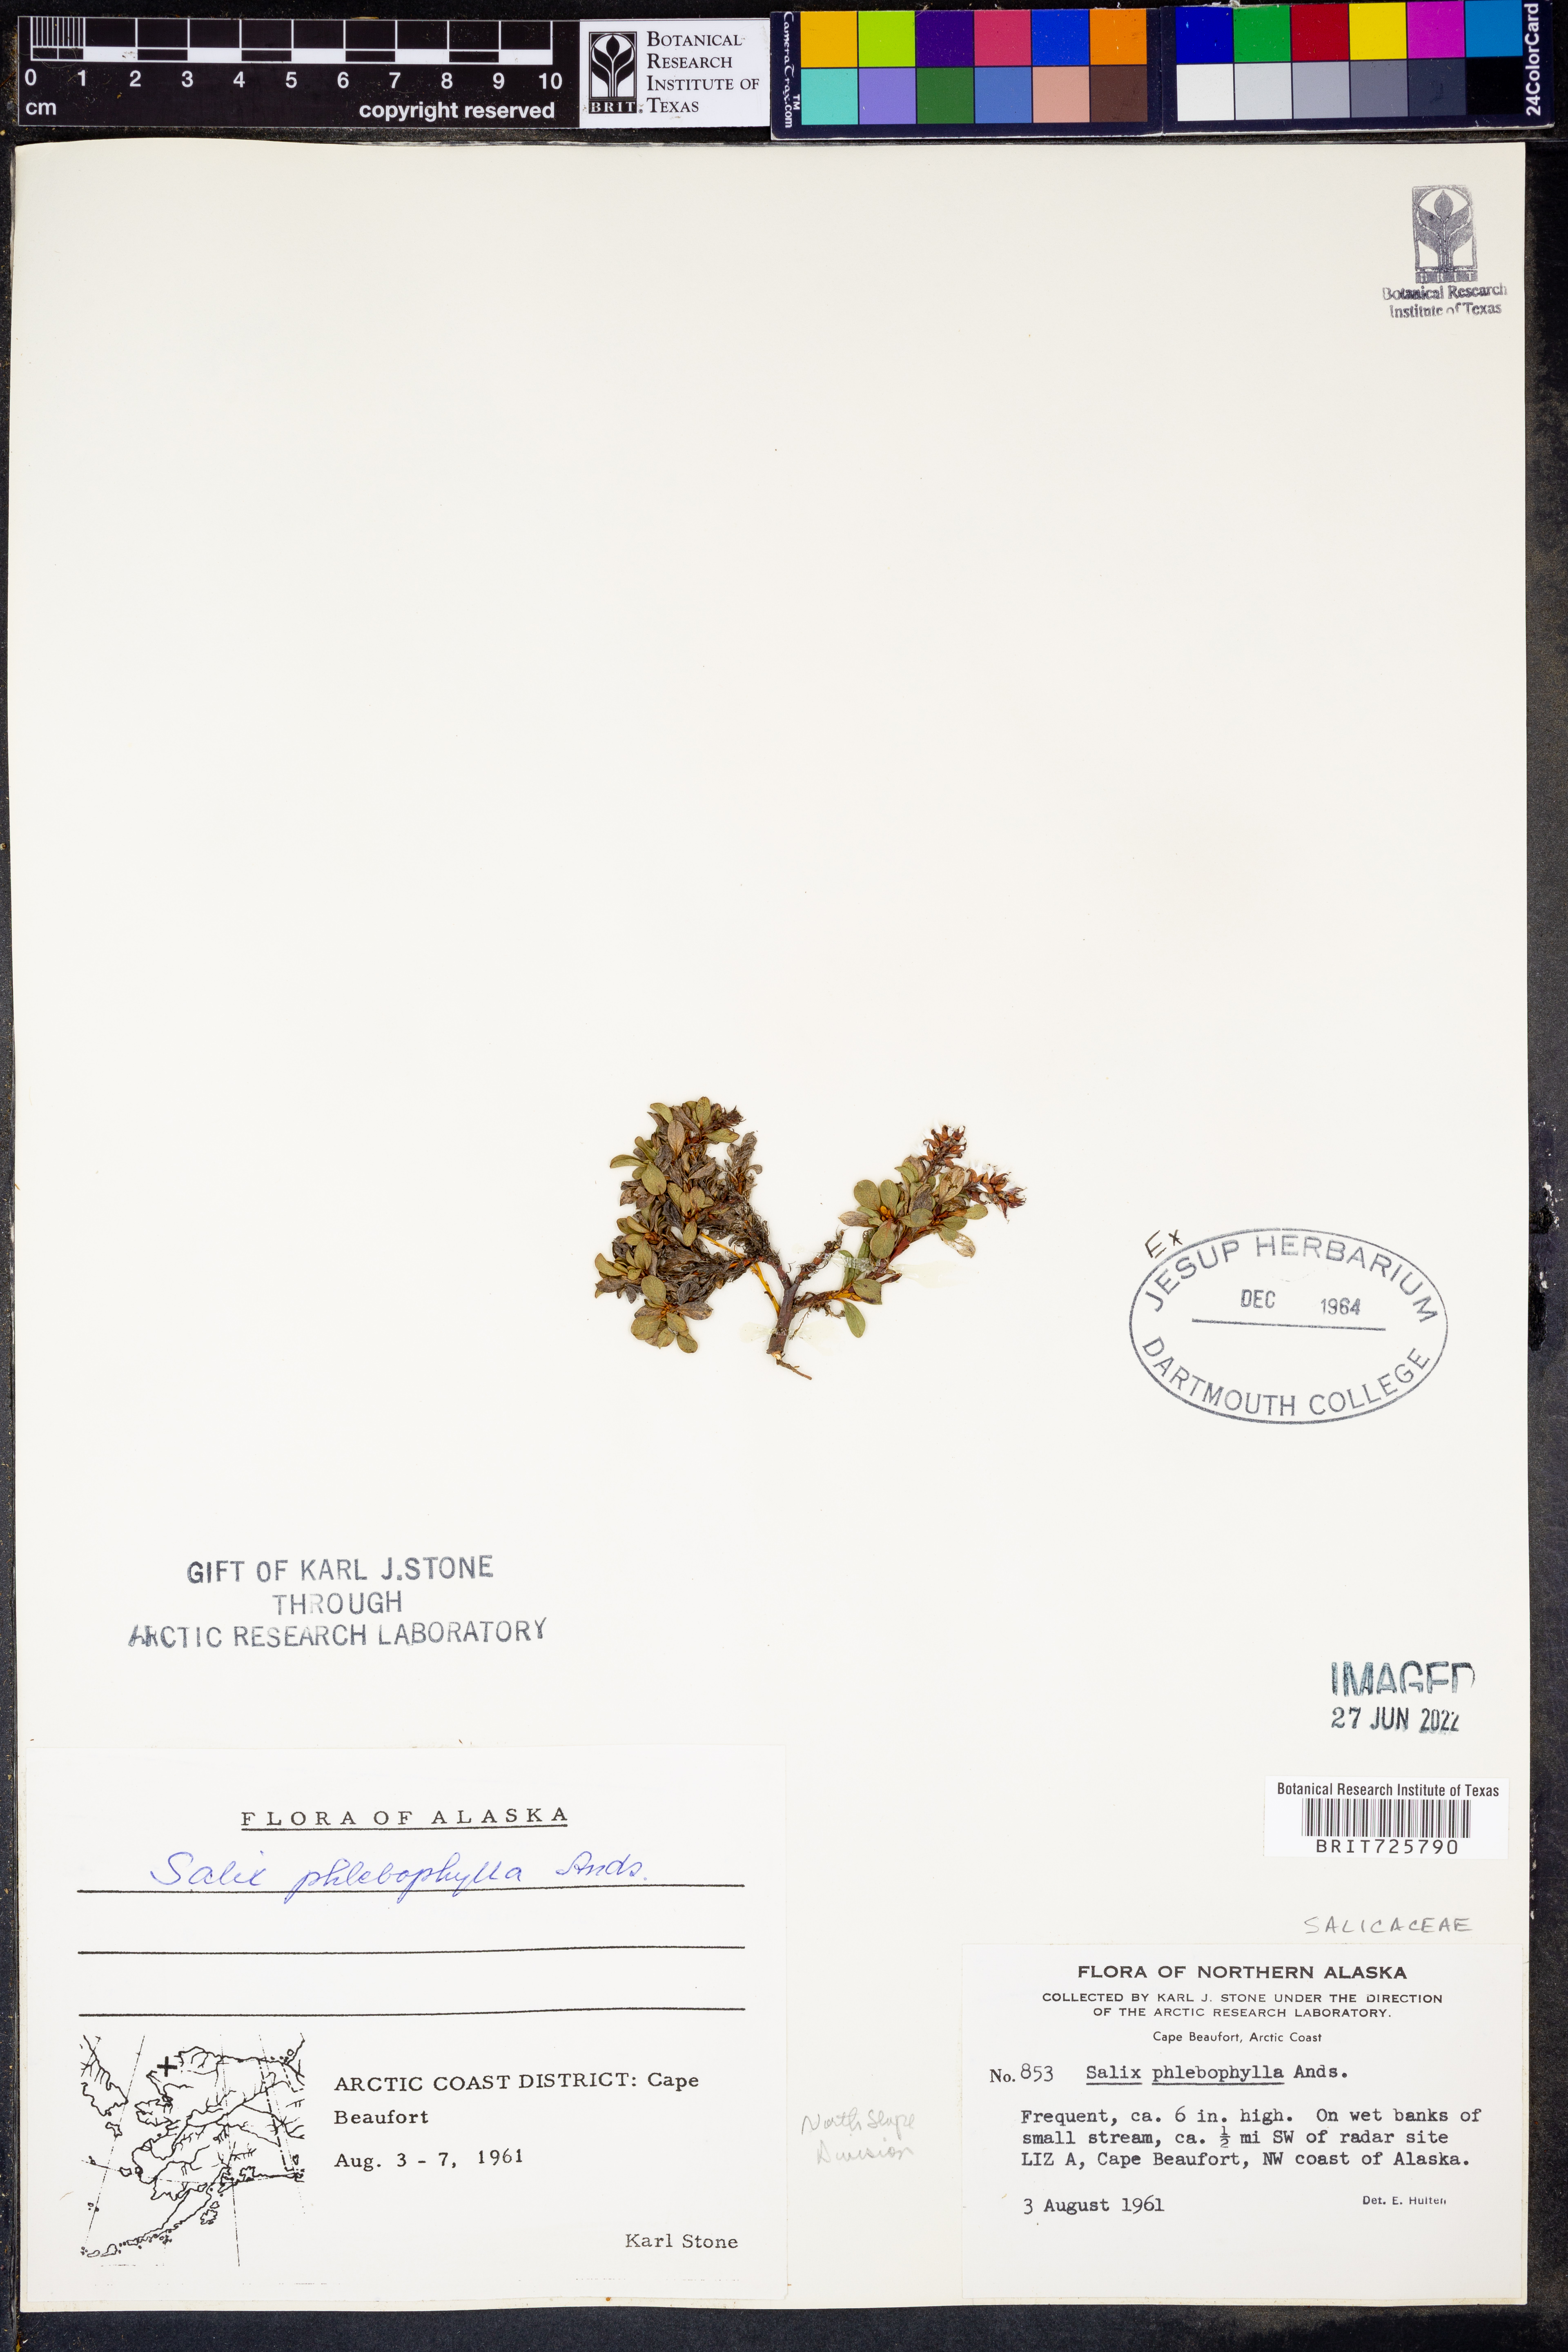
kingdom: Plantae
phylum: Tracheophyta
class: Magnoliopsida
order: Malpighiales
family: Salicaceae
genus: Salix
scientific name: Salix
